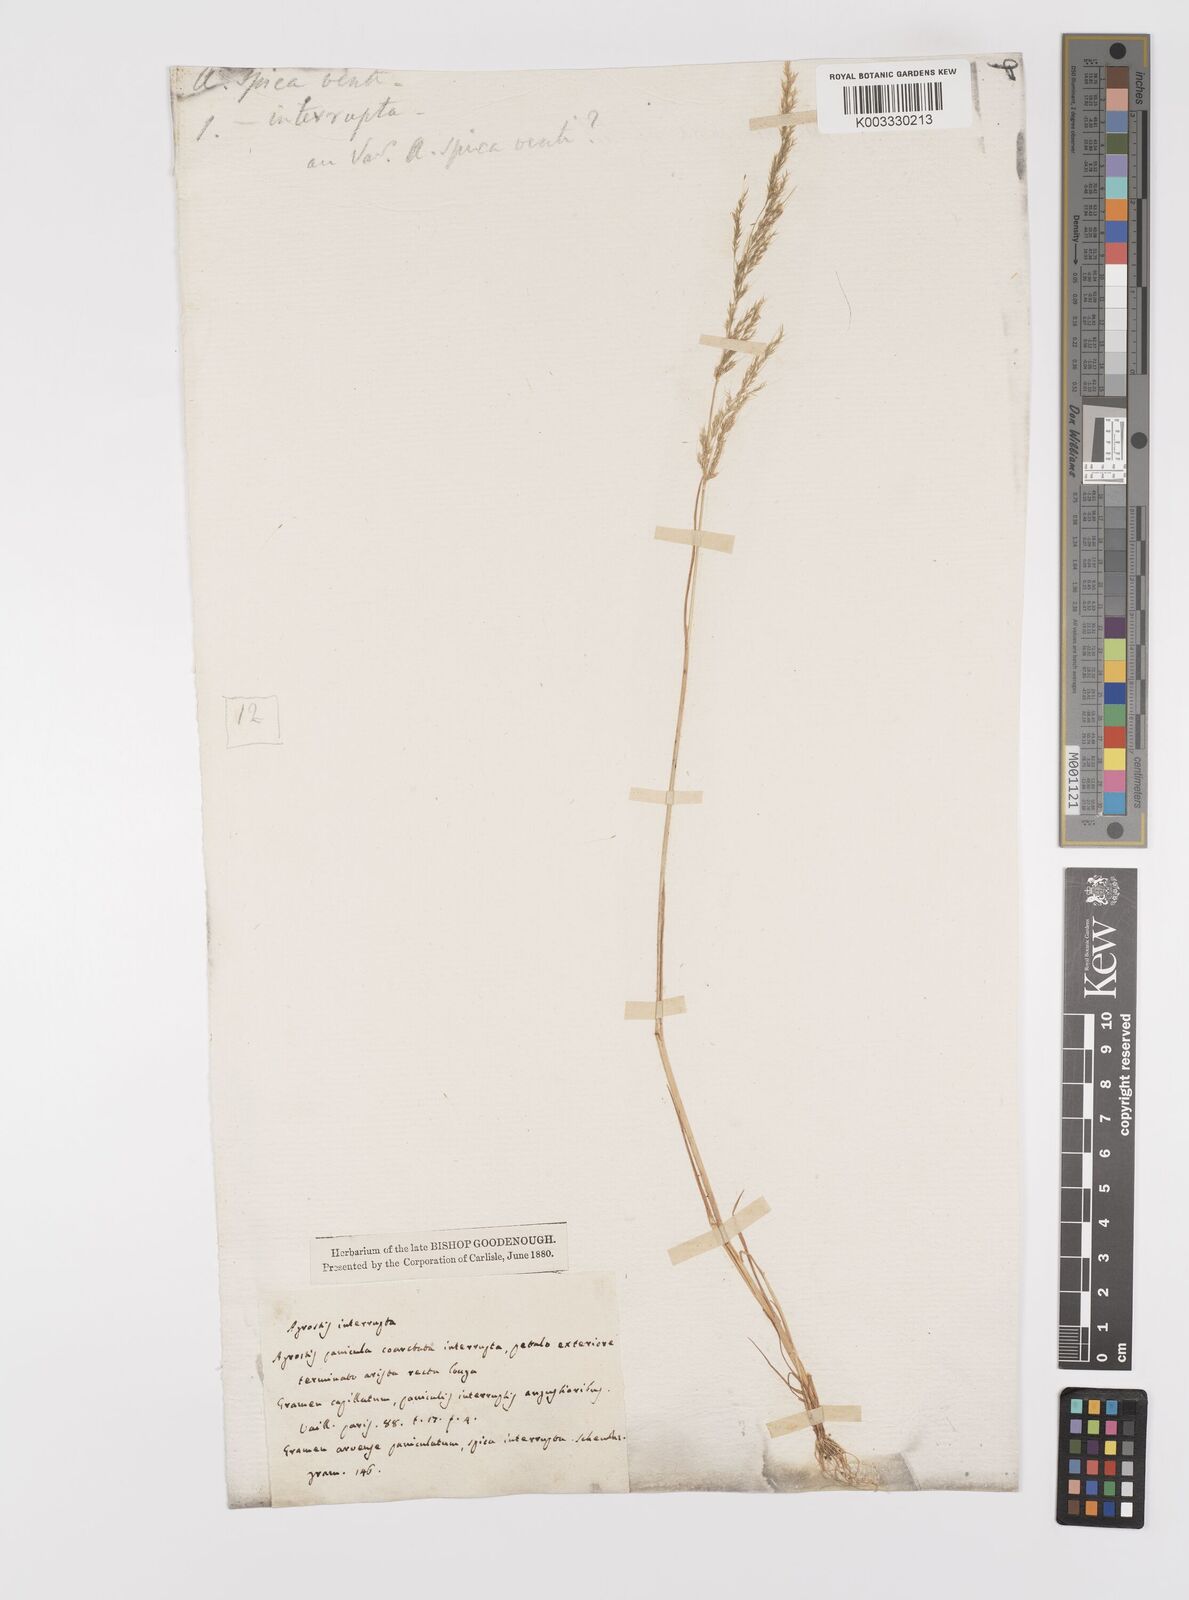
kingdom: Plantae
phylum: Tracheophyta
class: Liliopsida
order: Poales
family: Poaceae
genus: Apera
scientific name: Apera interrupta
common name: Dense silky-bent
